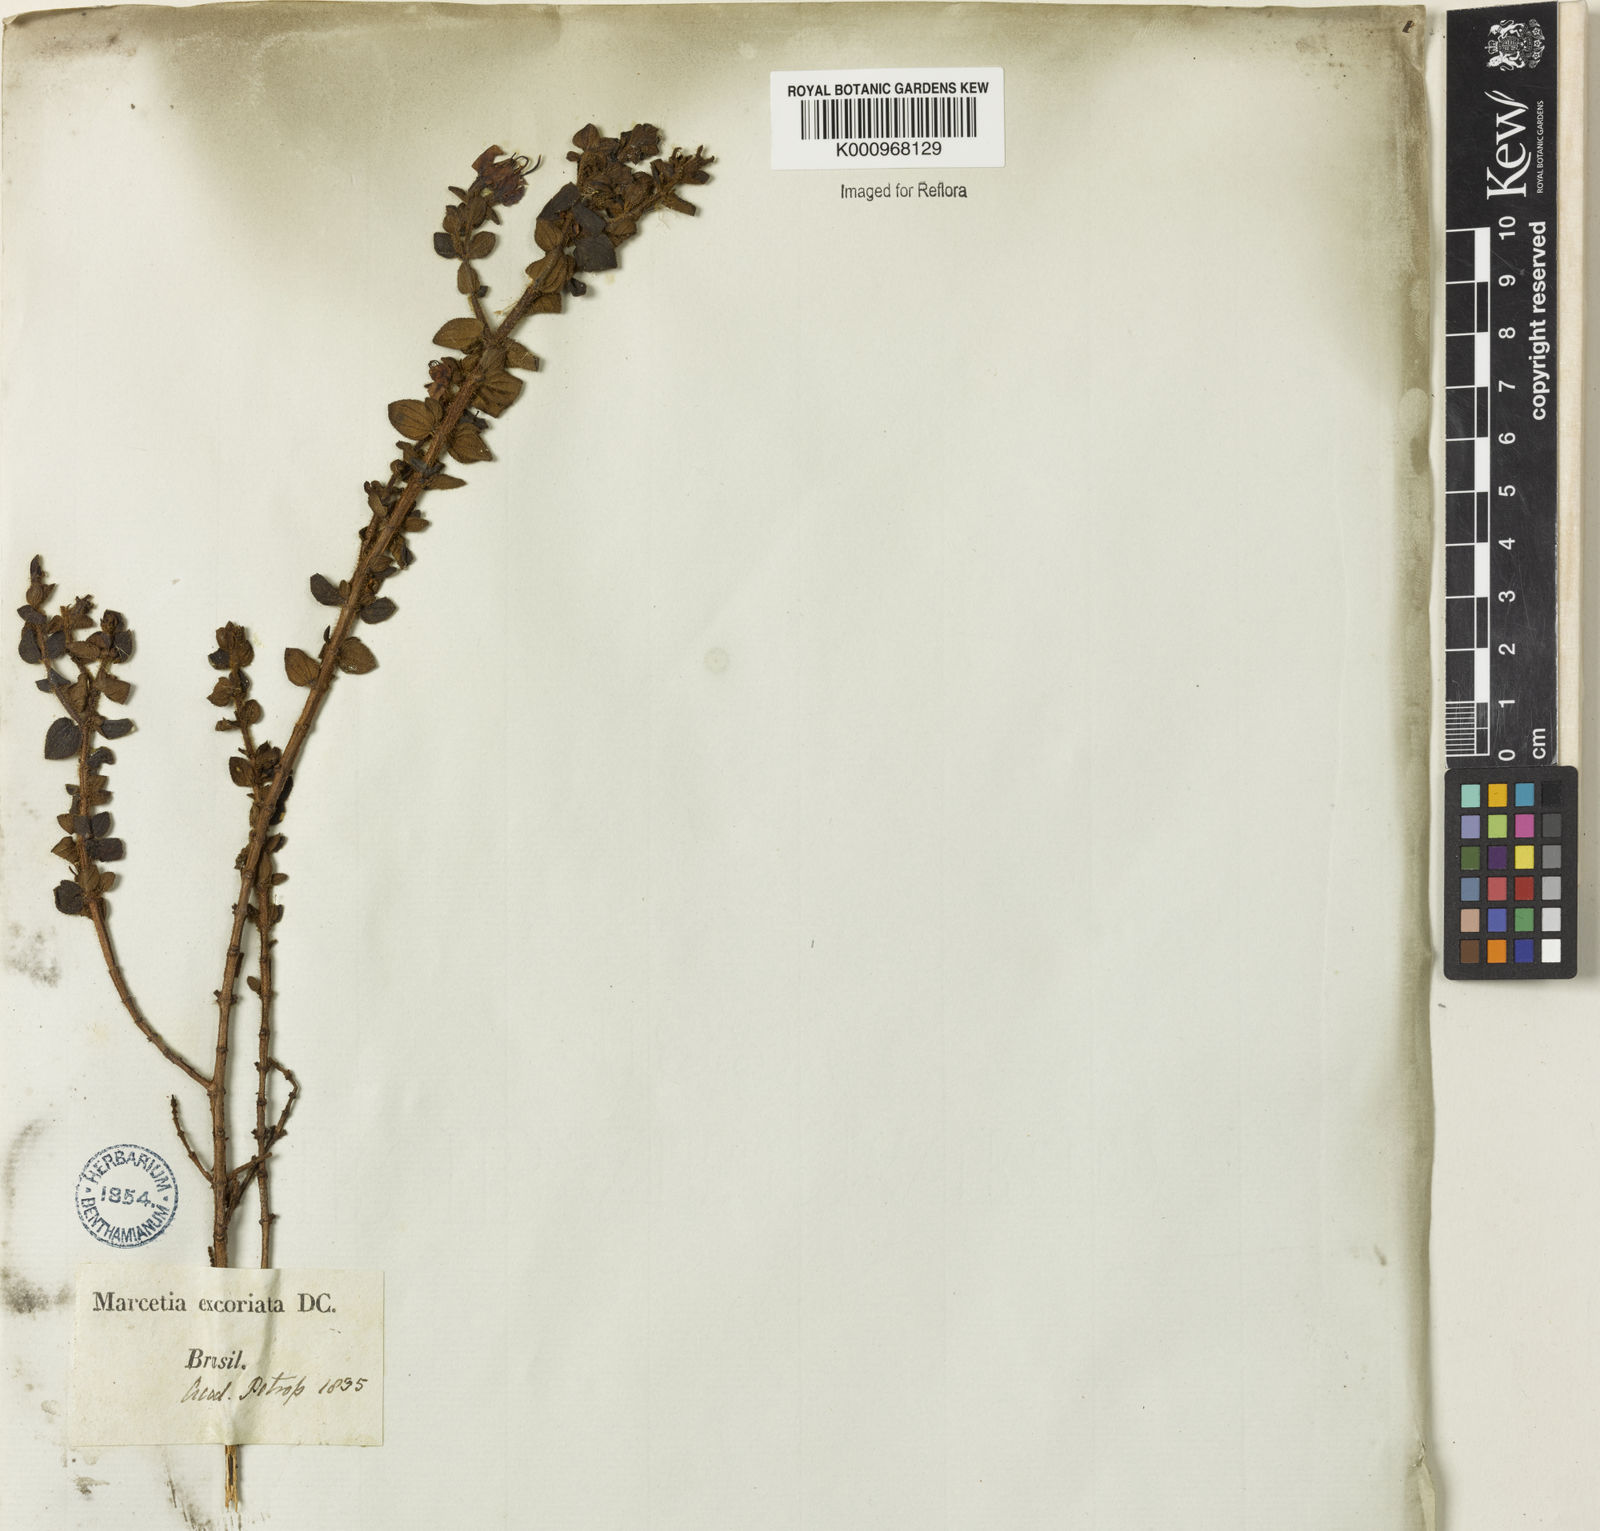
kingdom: Plantae
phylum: Tracheophyta
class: Magnoliopsida
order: Myrtales
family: Melastomataceae
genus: Fritzschia
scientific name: Fritzschia sessilis
